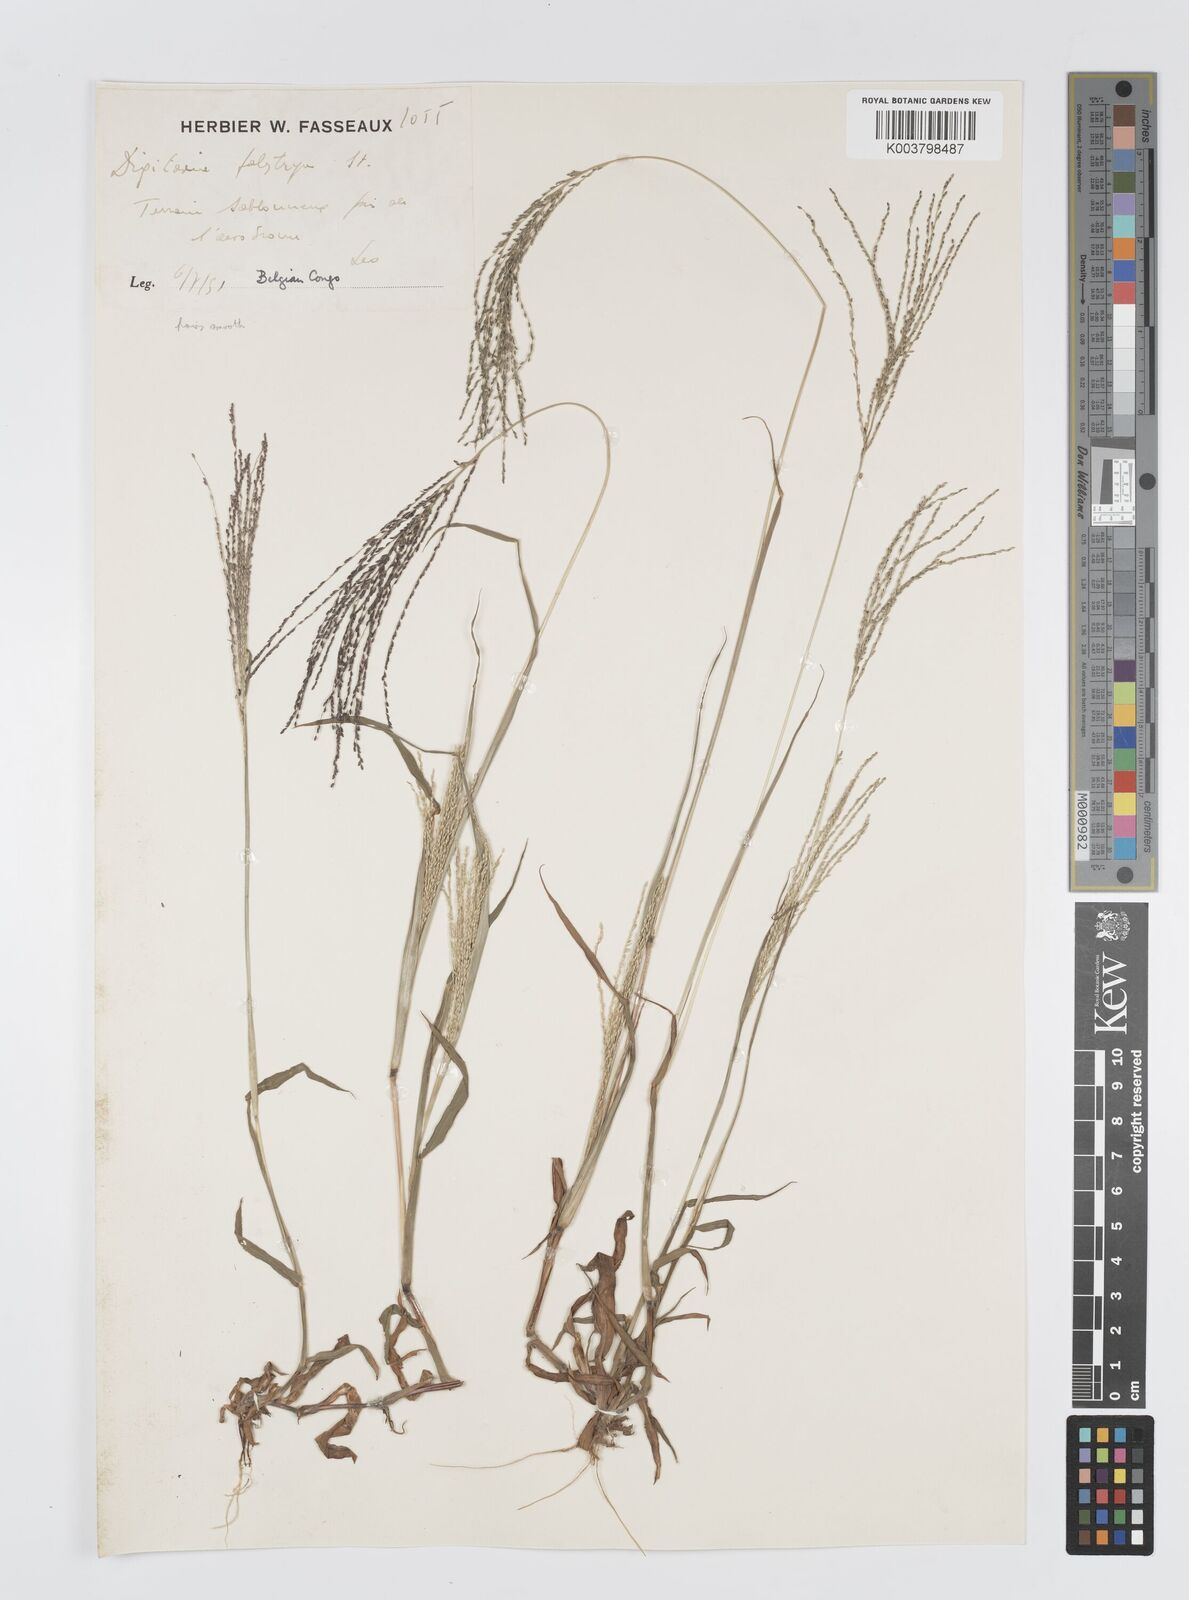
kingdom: Plantae
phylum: Tracheophyta
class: Liliopsida
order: Poales
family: Poaceae
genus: Digitaria
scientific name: Digitaria leptorhachis
